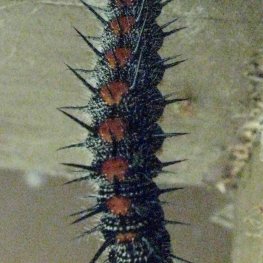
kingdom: Animalia
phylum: Arthropoda
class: Insecta
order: Lepidoptera
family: Nymphalidae
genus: Nymphalis
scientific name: Nymphalis antiopa
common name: Mourning Cloak
